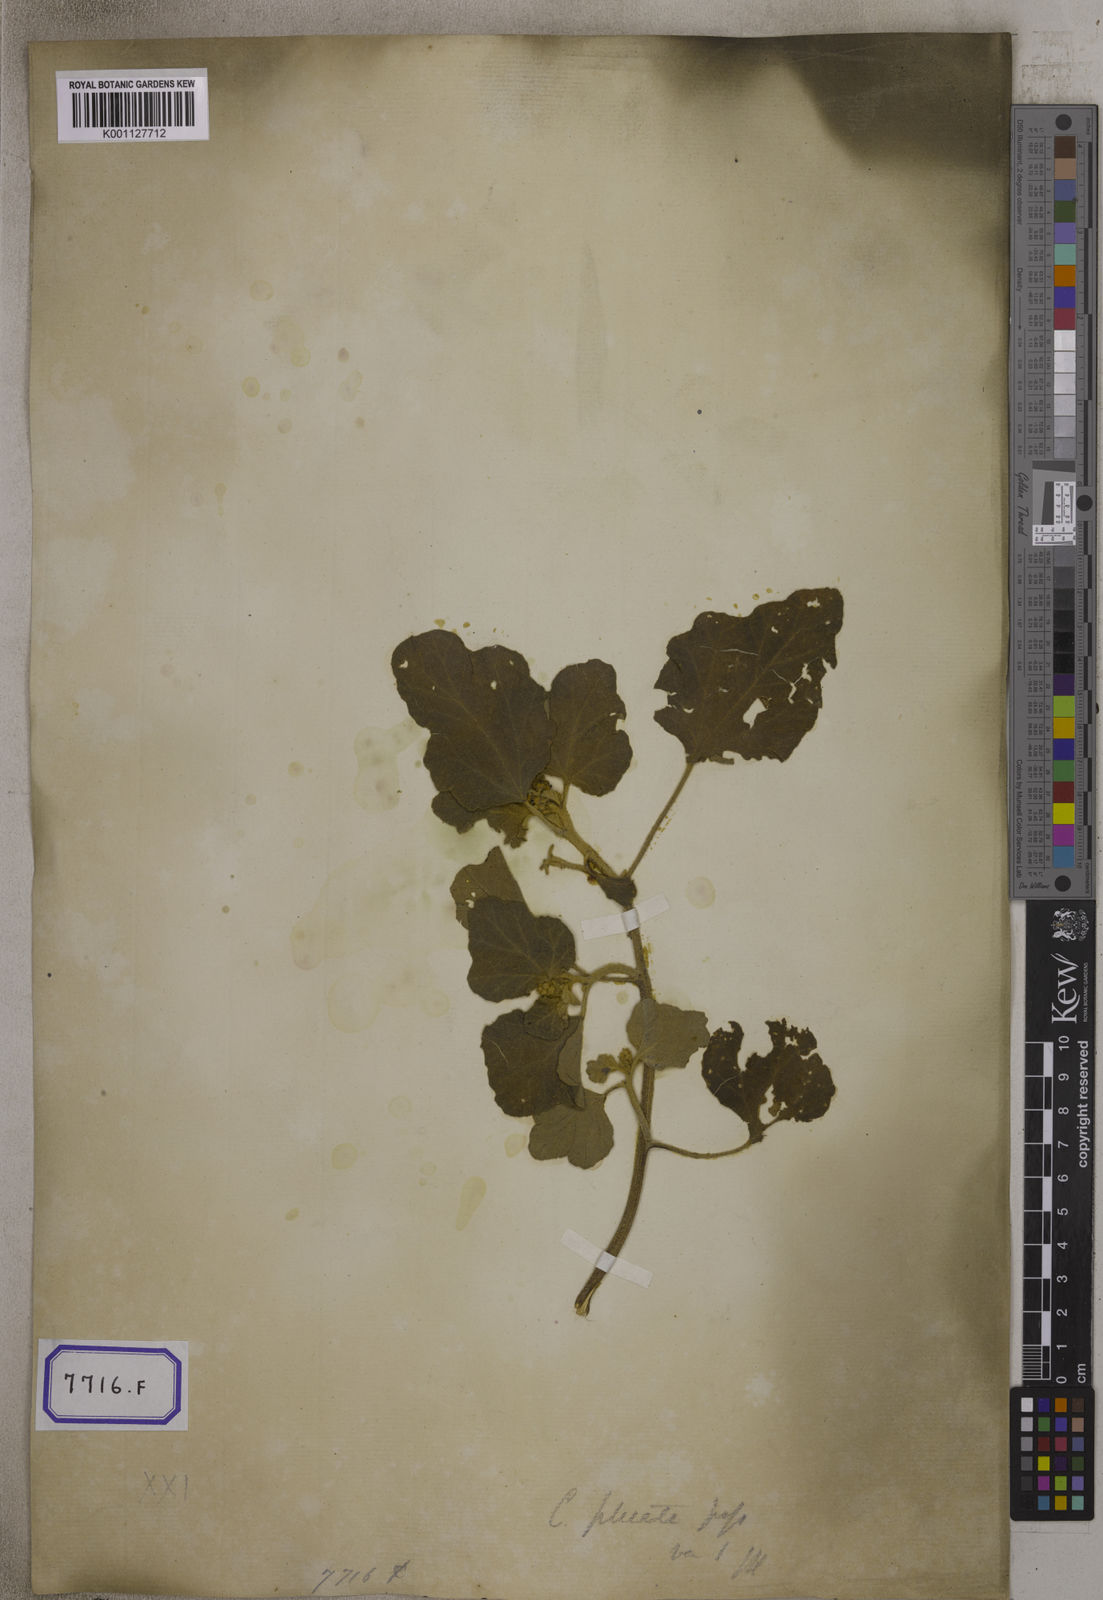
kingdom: Plantae
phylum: Tracheophyta
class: Magnoliopsida
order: Malpighiales
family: Euphorbiaceae
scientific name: Euphorbiaceae
